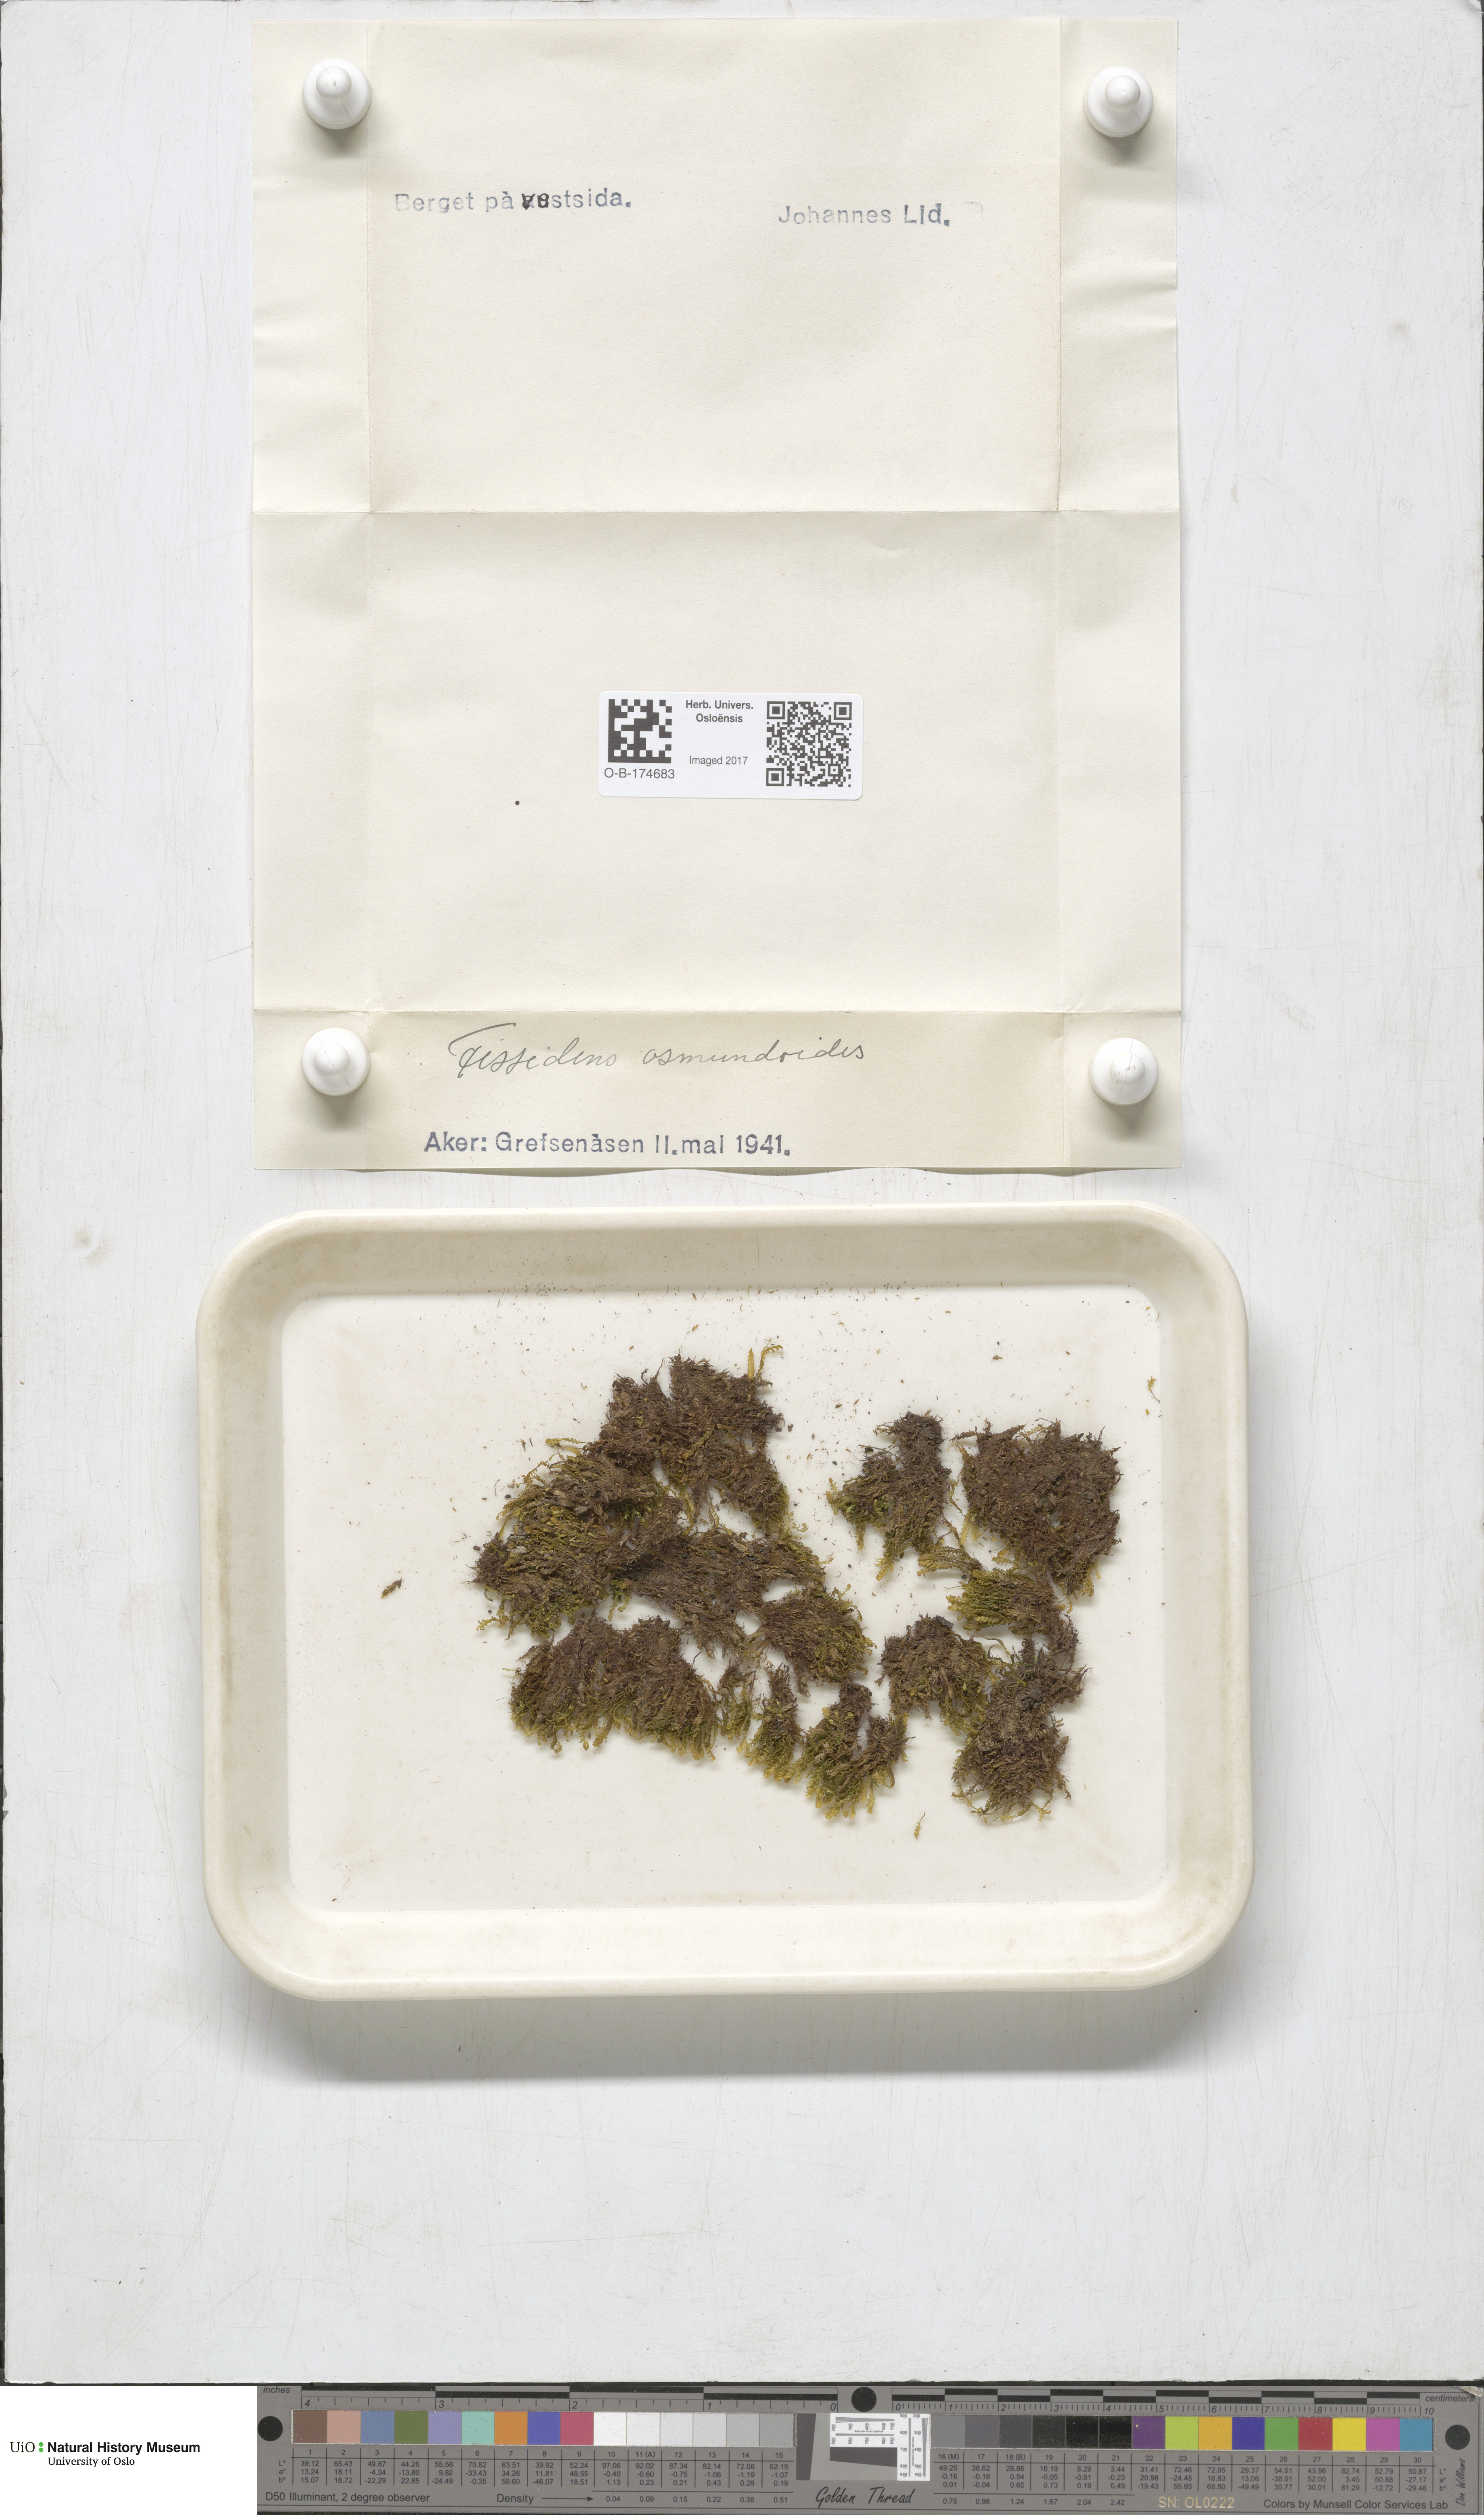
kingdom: Plantae
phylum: Bryophyta
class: Bryopsida
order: Dicranales
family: Fissidentaceae
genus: Fissidens
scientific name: Fissidens osmundoides
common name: Purple-stalked pocket moss
